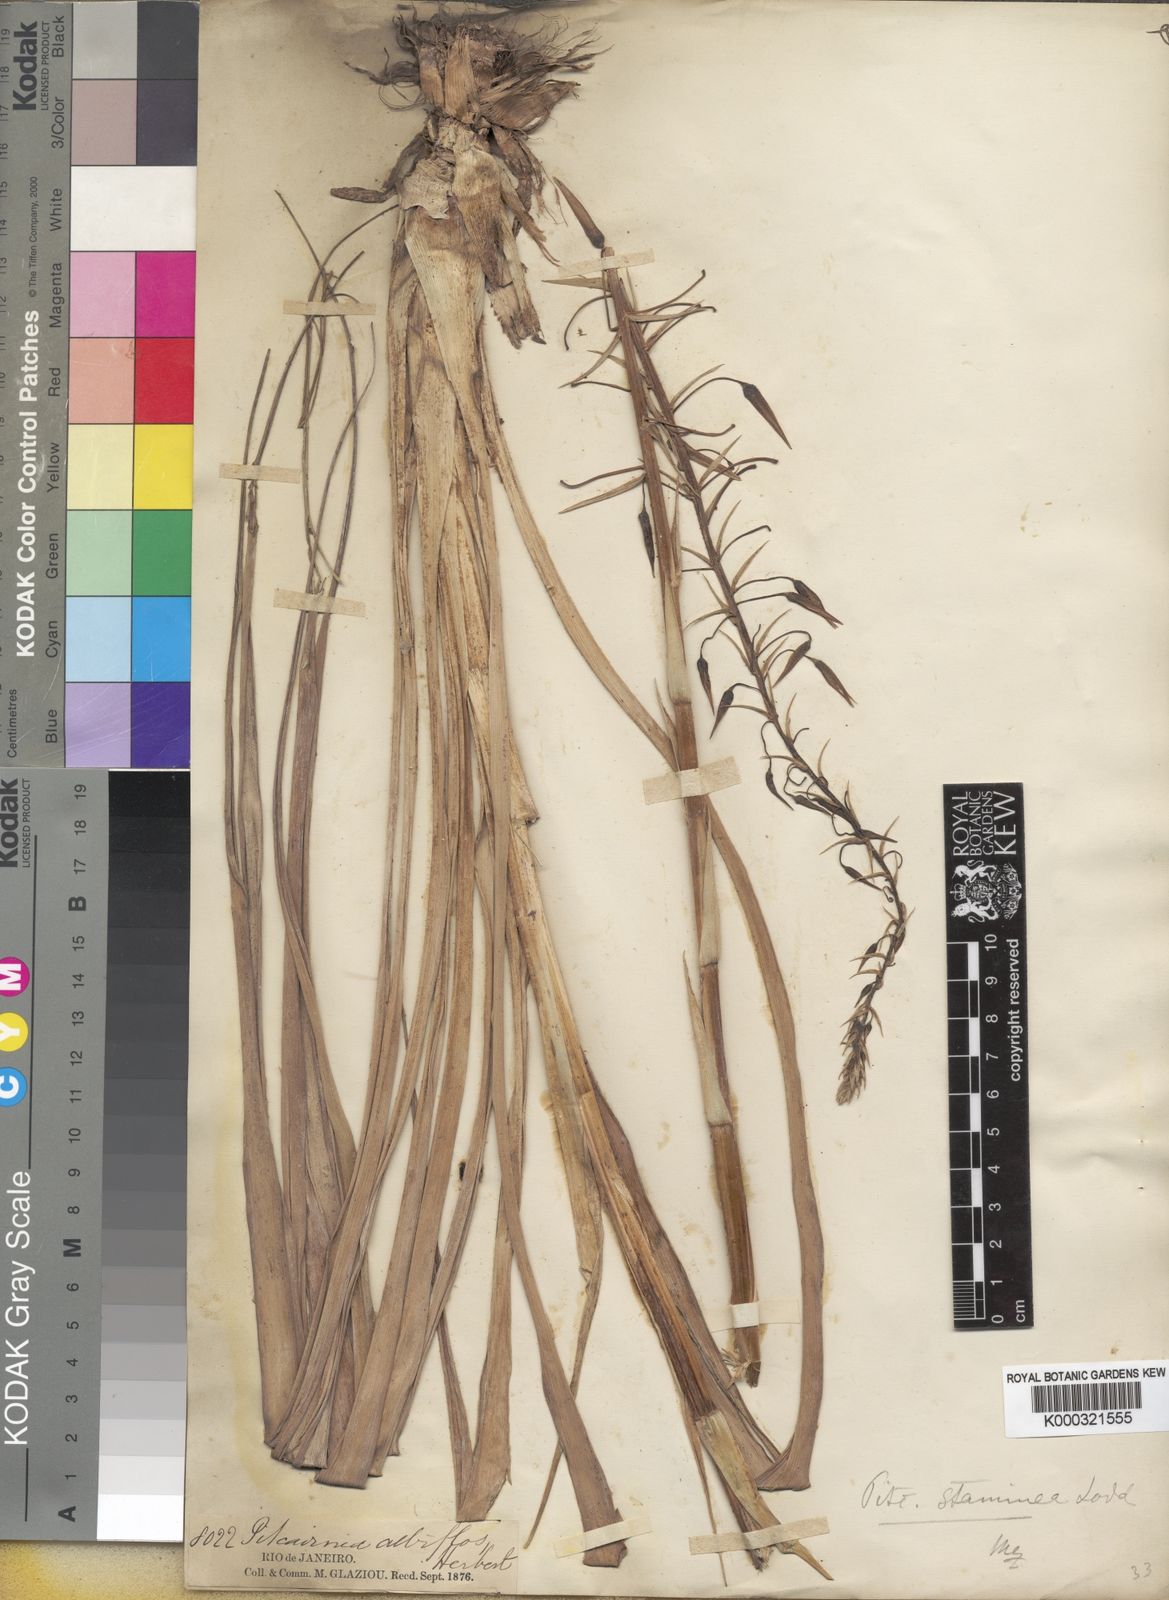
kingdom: Plantae
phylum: Tracheophyta
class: Liliopsida
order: Poales
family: Bromeliaceae
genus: Pitcairnia
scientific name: Pitcairnia staminea
